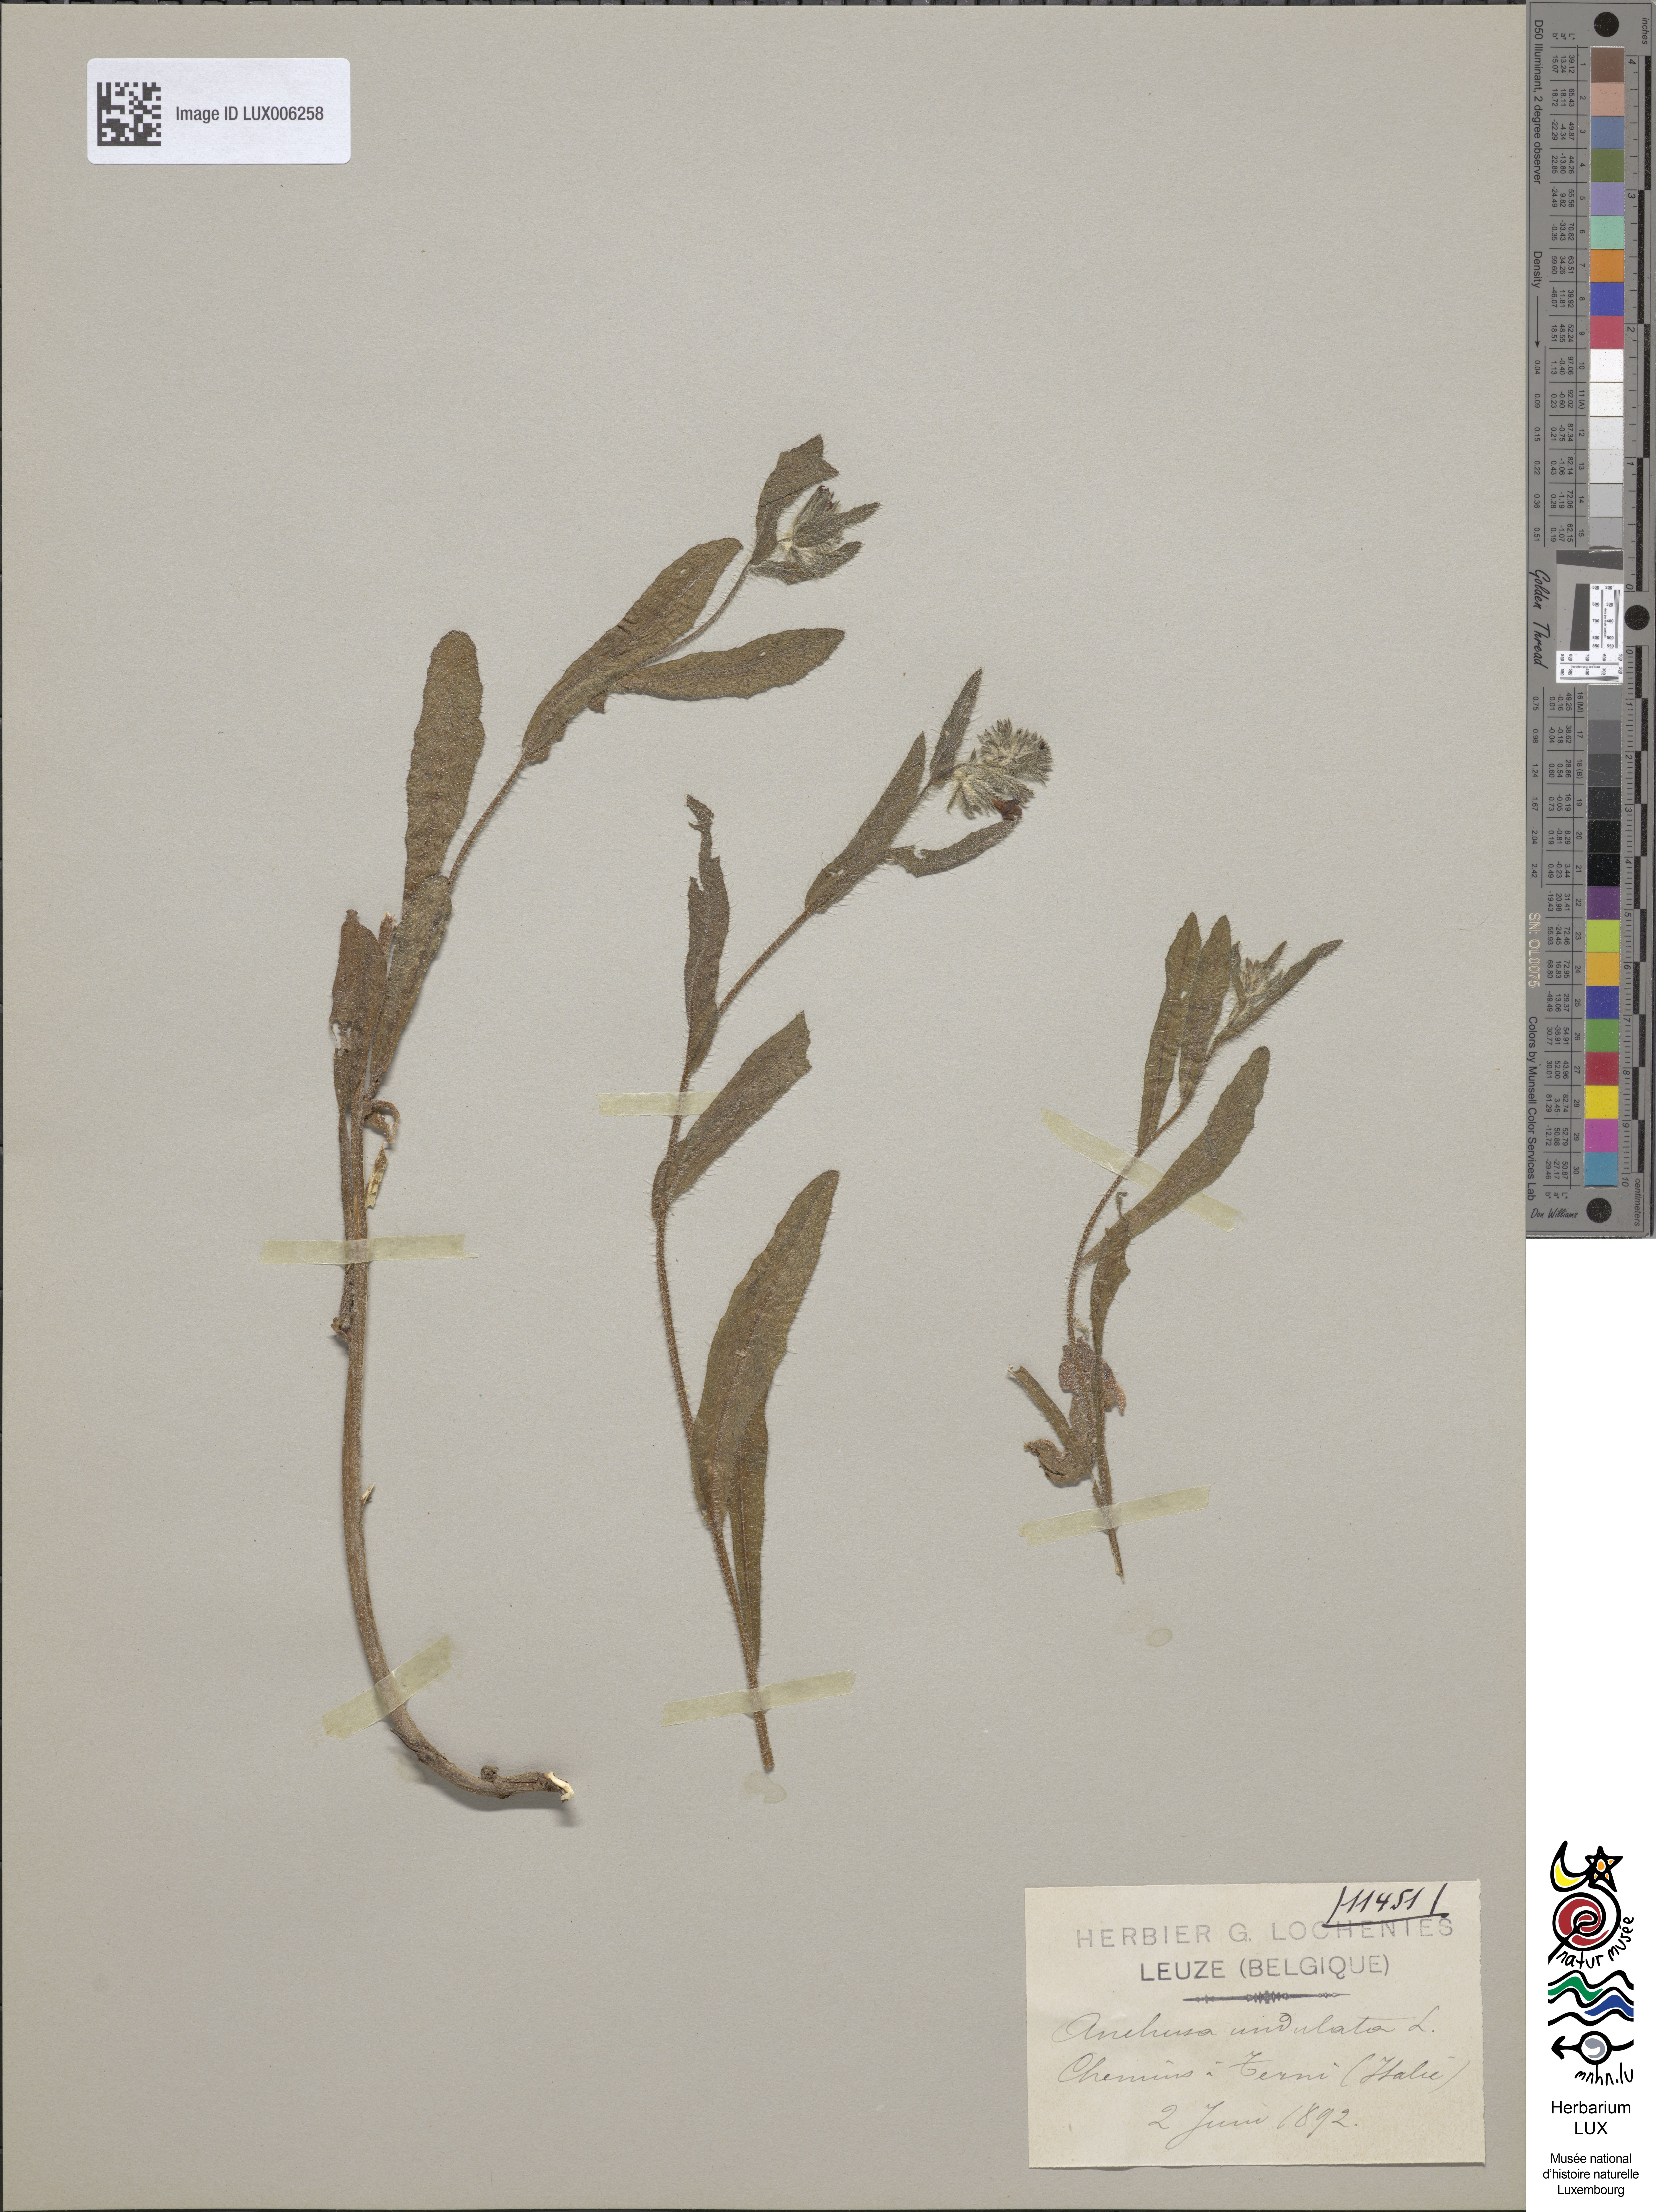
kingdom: Plantae
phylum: Tracheophyta
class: Magnoliopsida
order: Boraginales
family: Boraginaceae
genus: Anchusa
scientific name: Anchusa undulata
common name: Undulate alkanet
